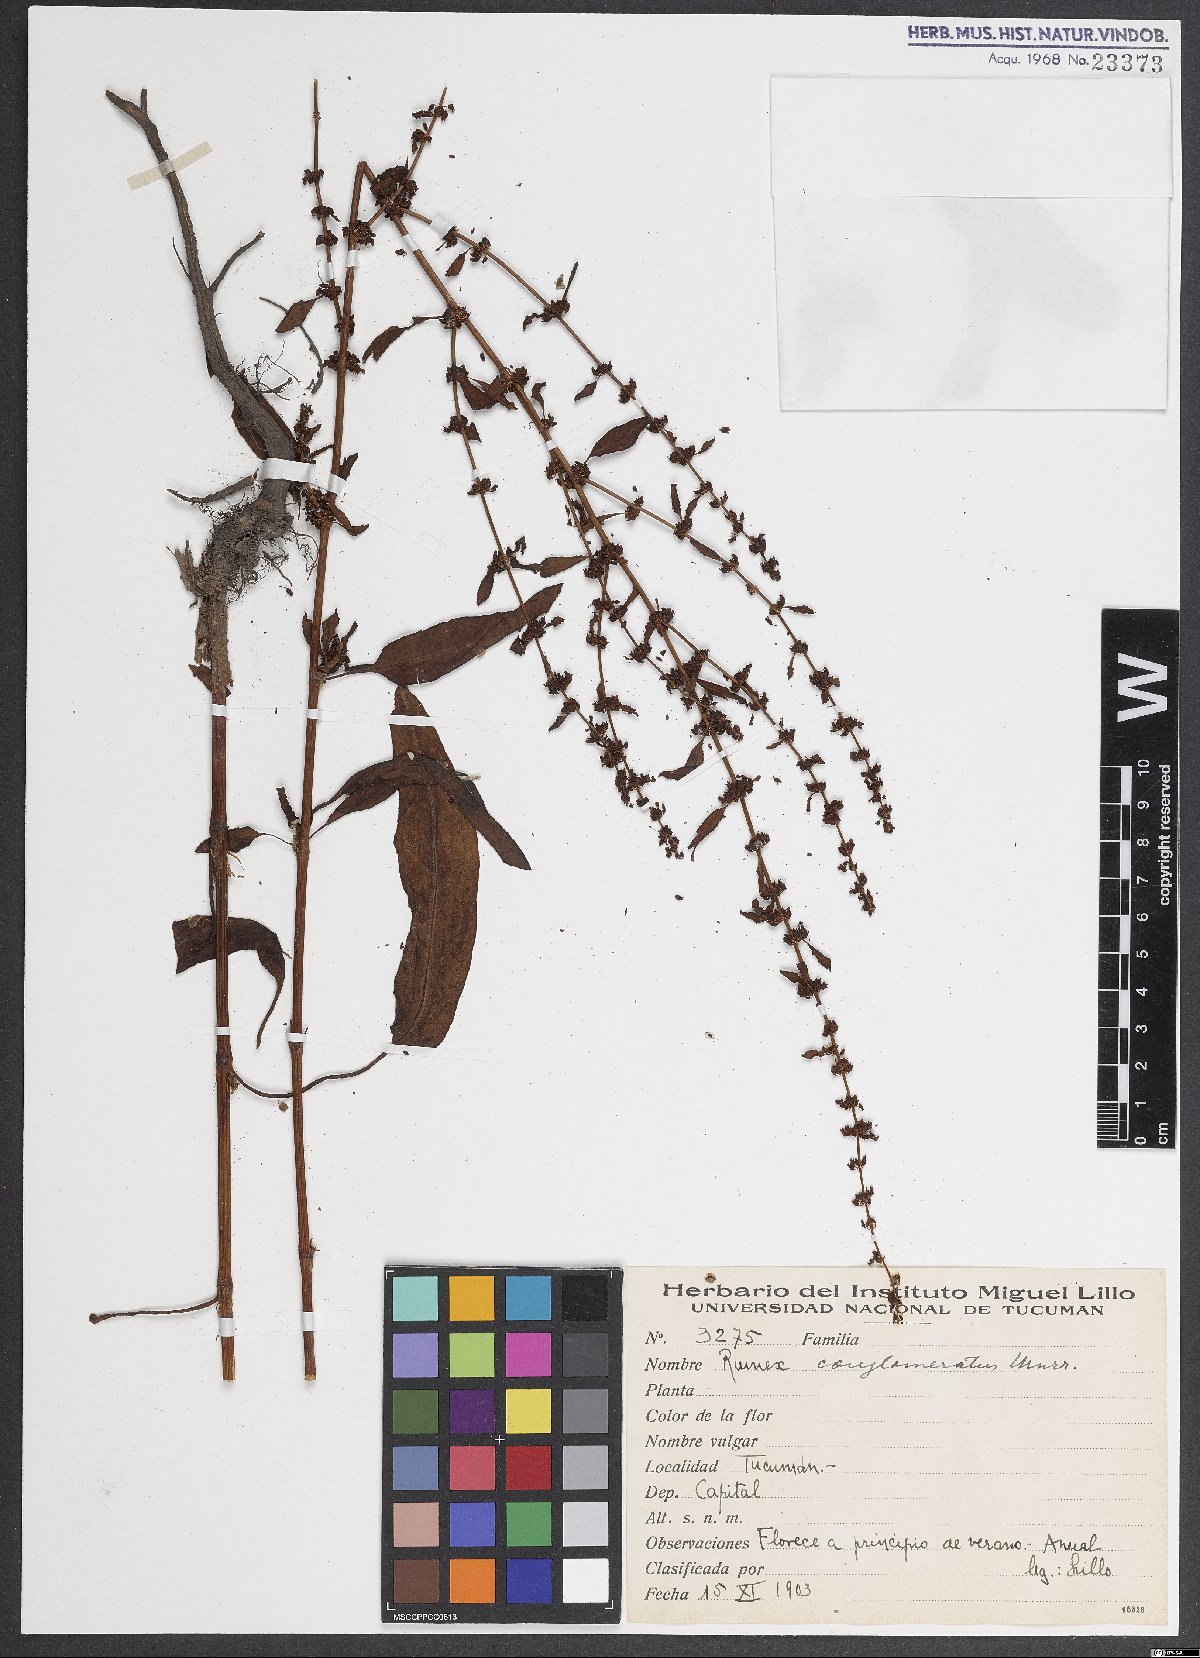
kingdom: Plantae
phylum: Tracheophyta
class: Magnoliopsida
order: Caryophyllales
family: Polygonaceae
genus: Rumex
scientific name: Rumex conglomeratus
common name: Clustered dock
